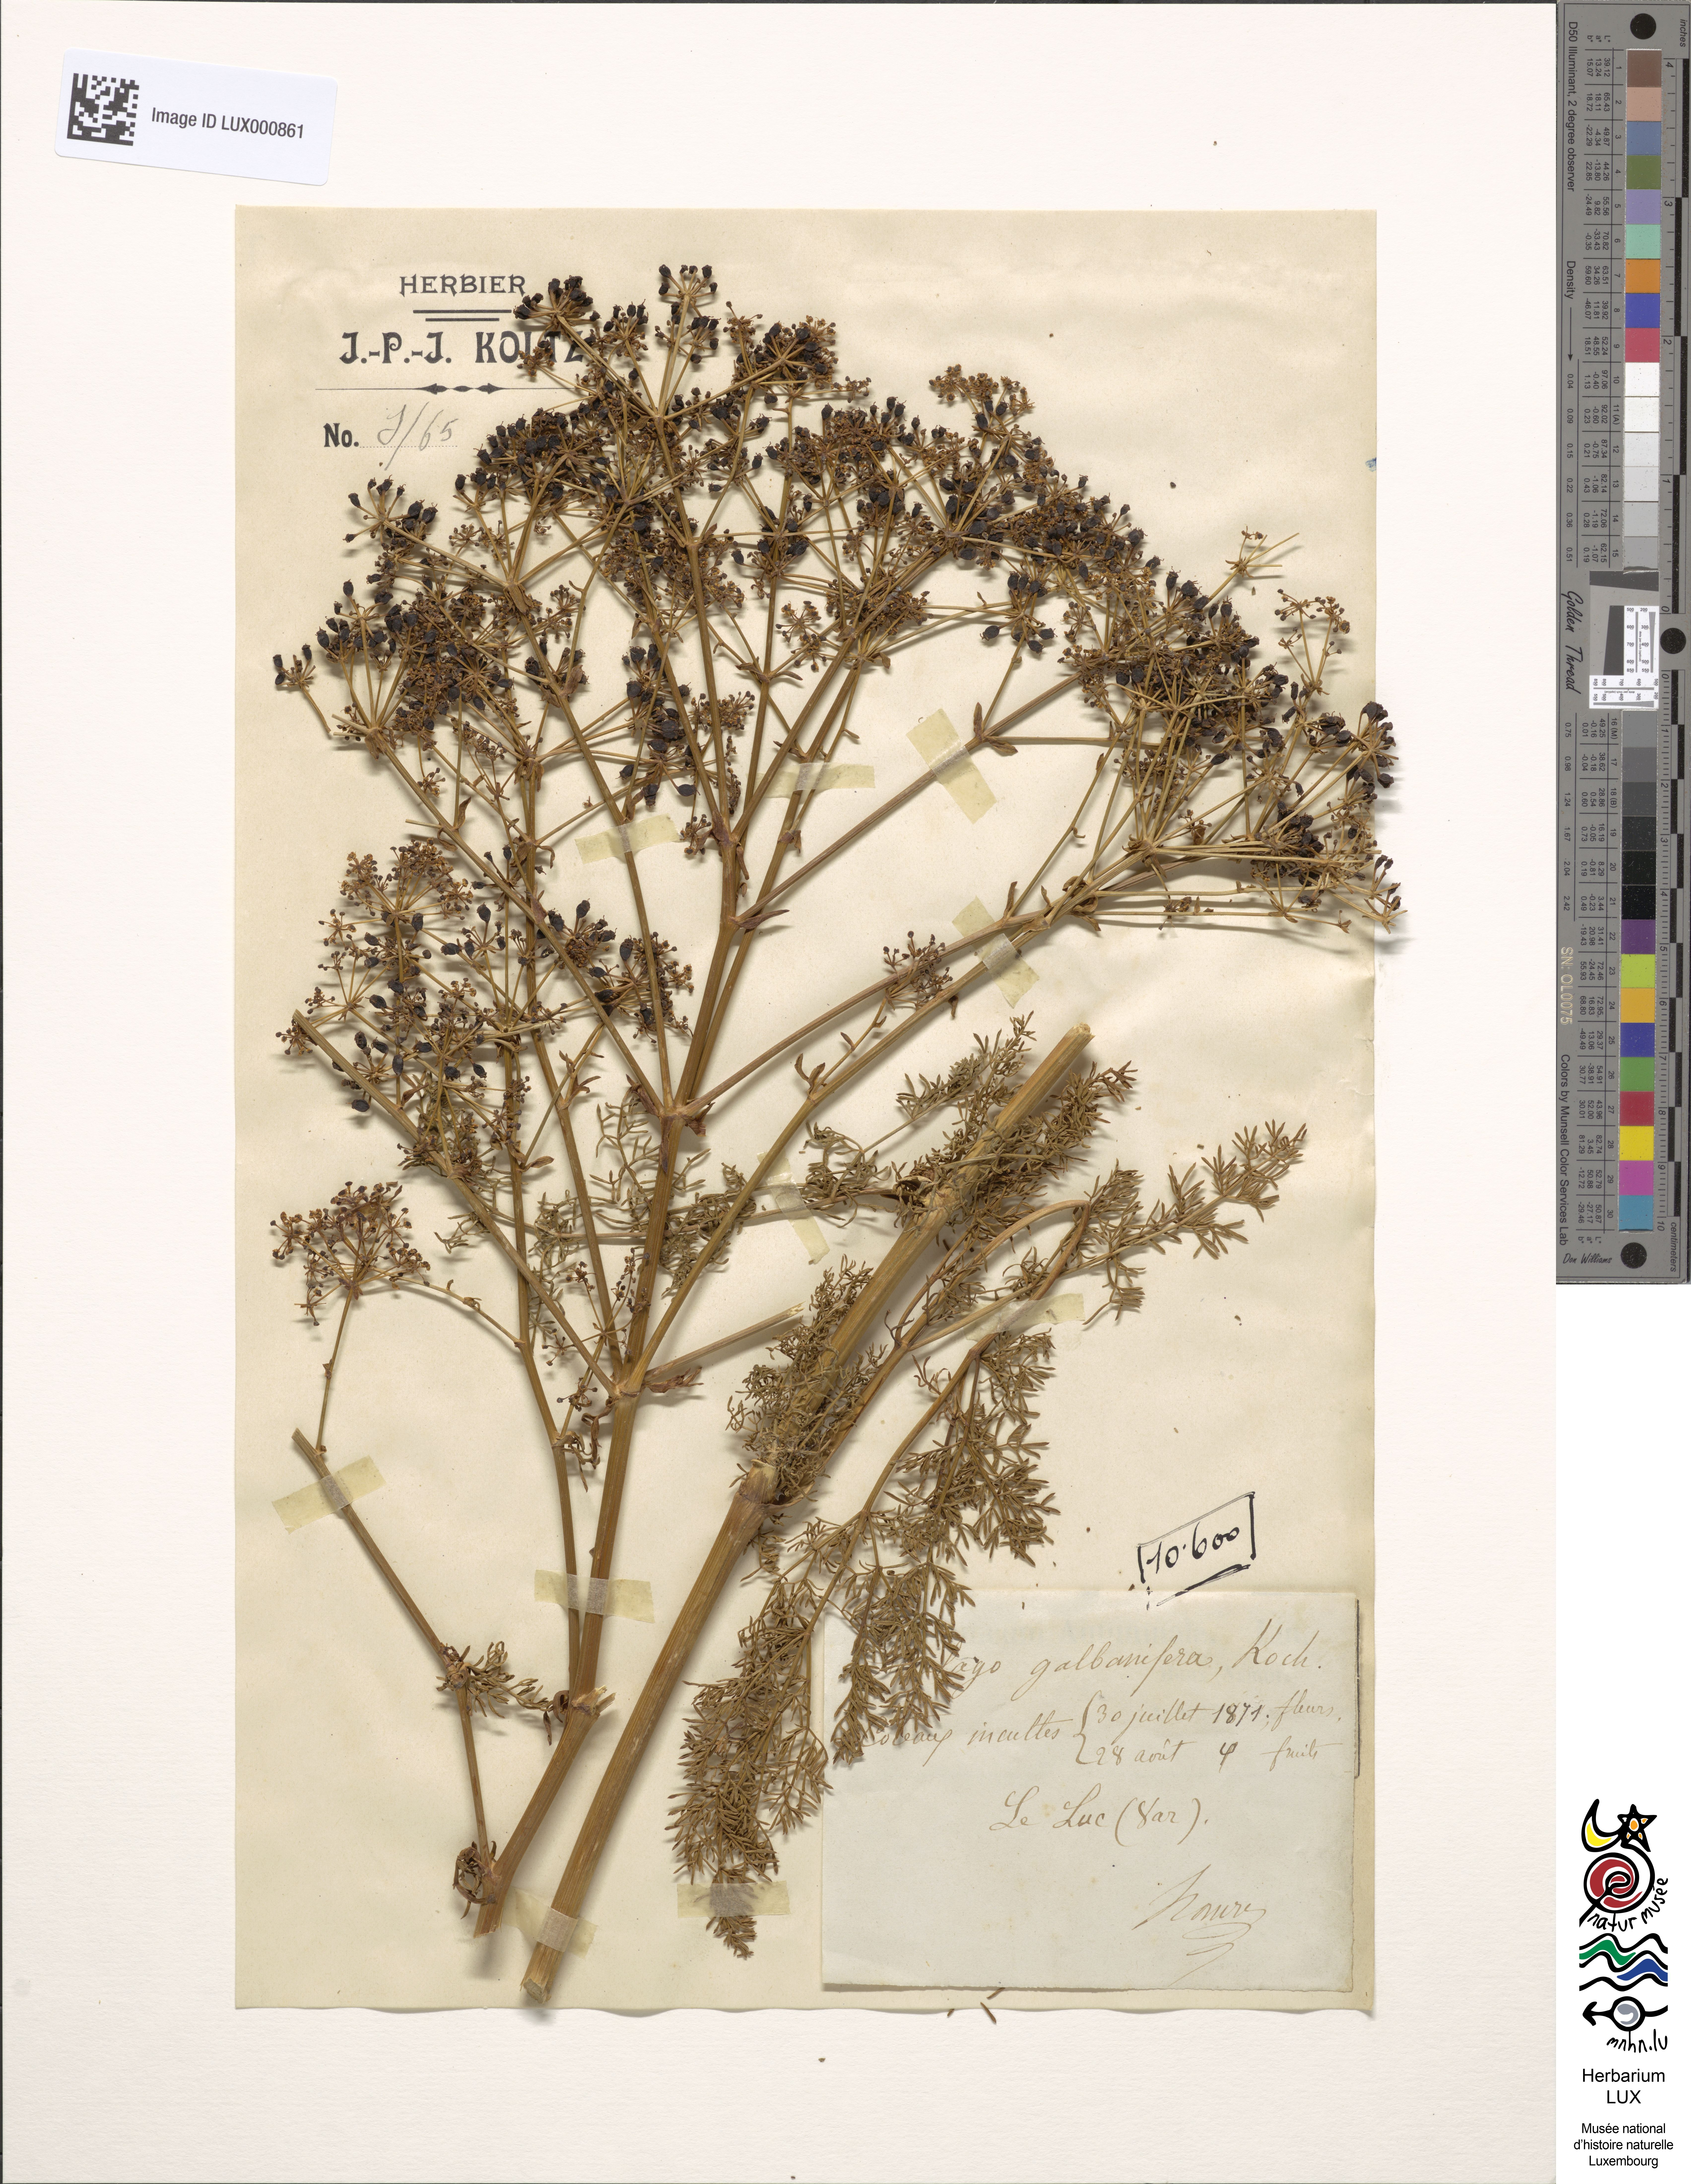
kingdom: Plantae
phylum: Tracheophyta
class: Magnoliopsida
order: Apiales
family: Apiaceae
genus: Ferulago
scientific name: Ferulago lutea
